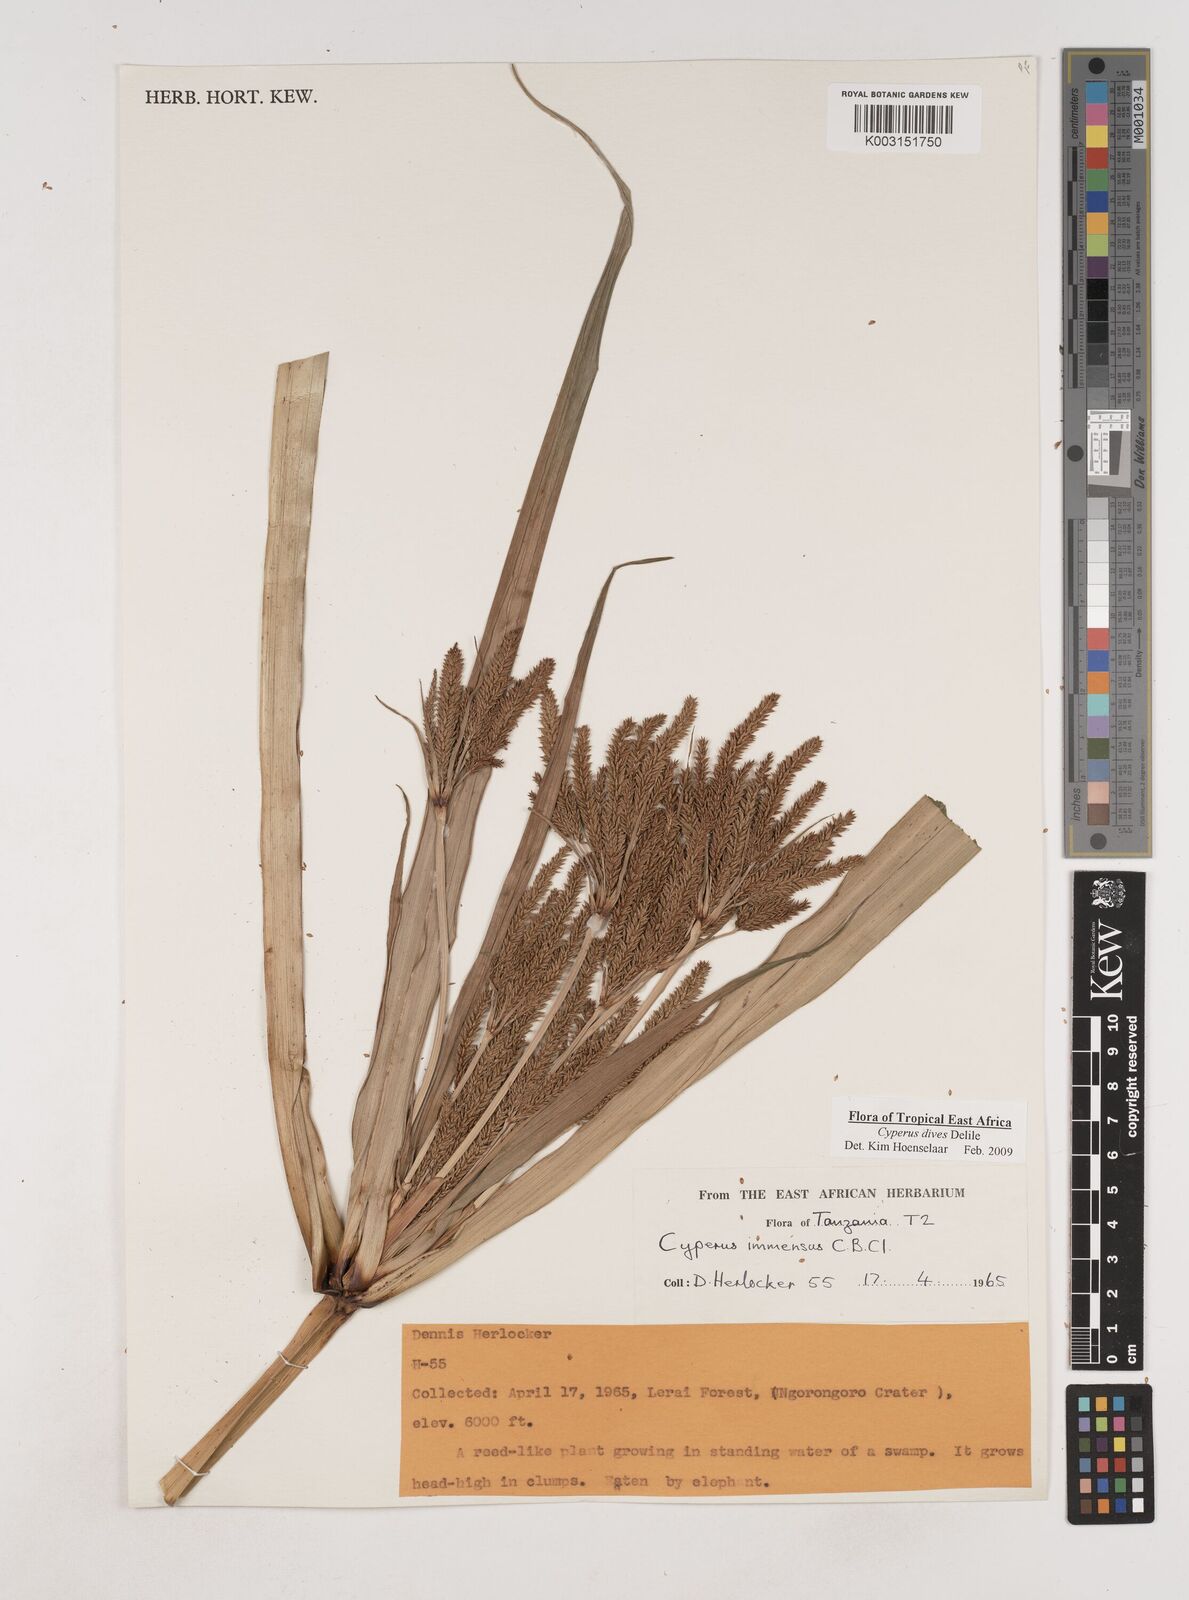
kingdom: Plantae
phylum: Tracheophyta
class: Liliopsida
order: Poales
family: Cyperaceae
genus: Cyperus
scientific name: Cyperus dives
